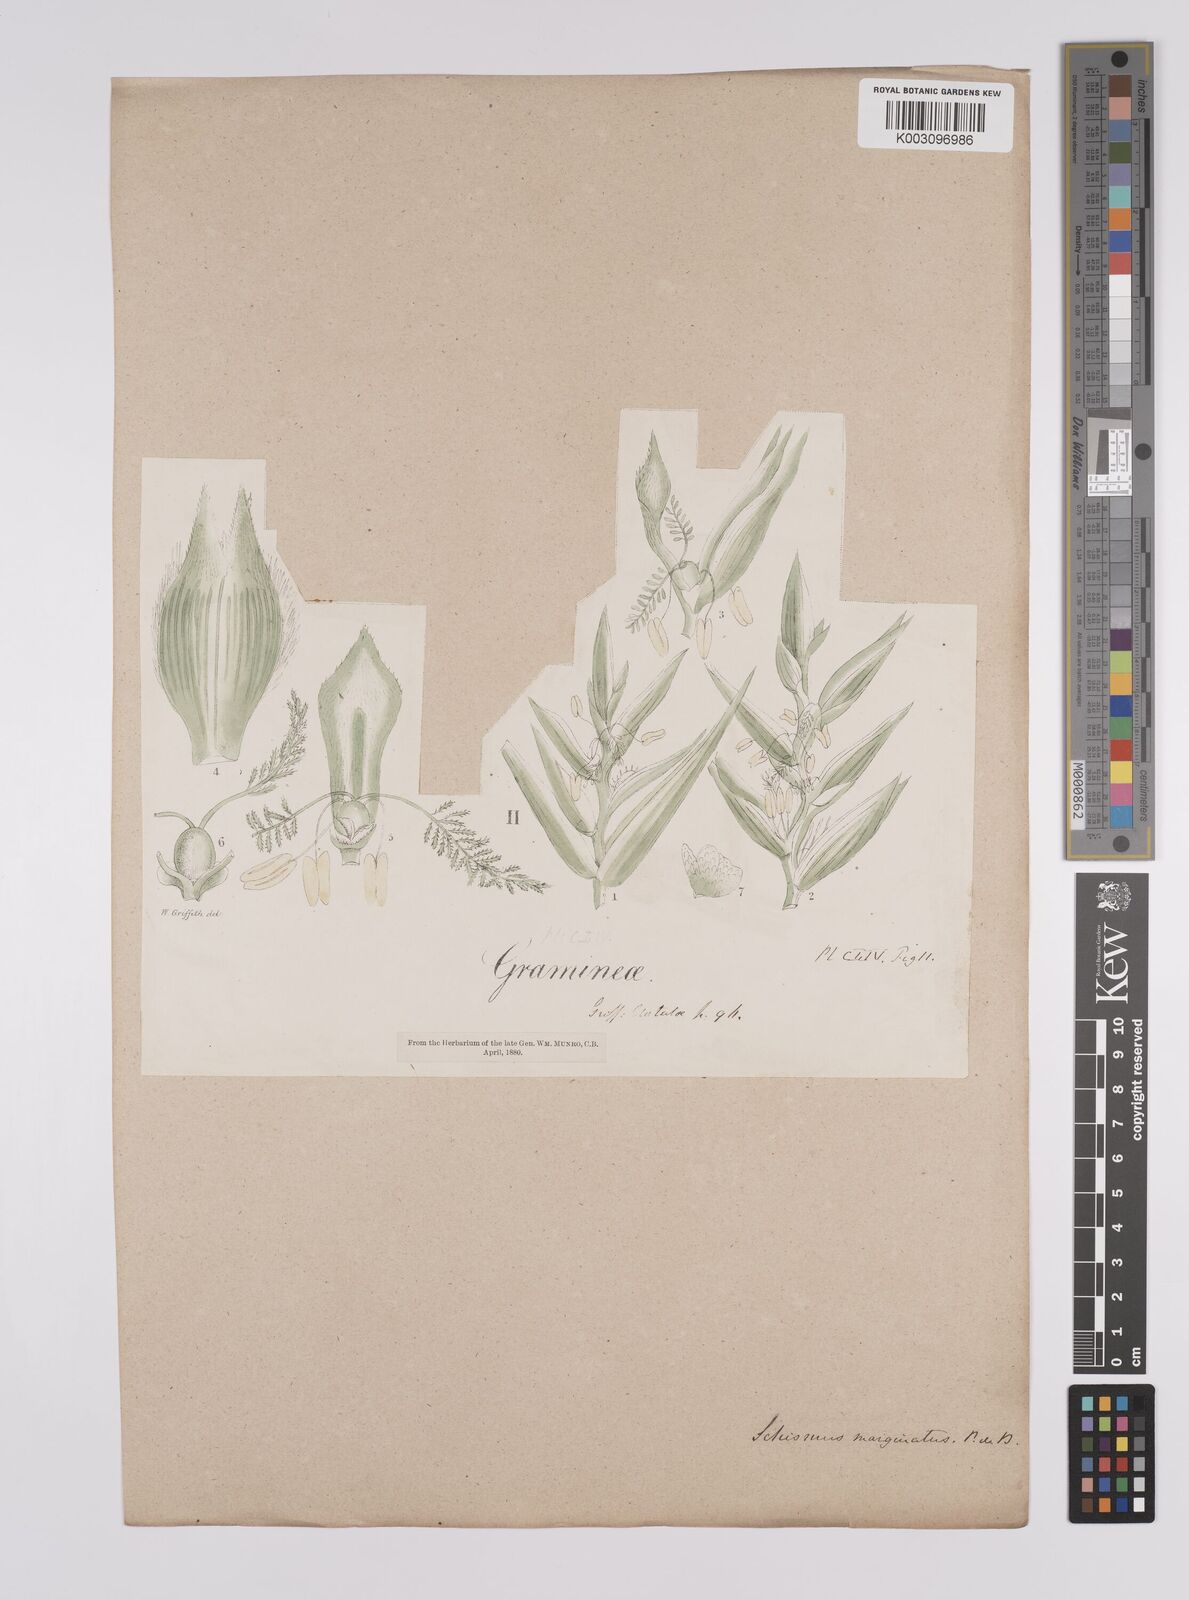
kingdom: Plantae
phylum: Tracheophyta
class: Liliopsida
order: Poales
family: Poaceae
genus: Schismus
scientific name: Schismus arabicus
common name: Arabian schismus
